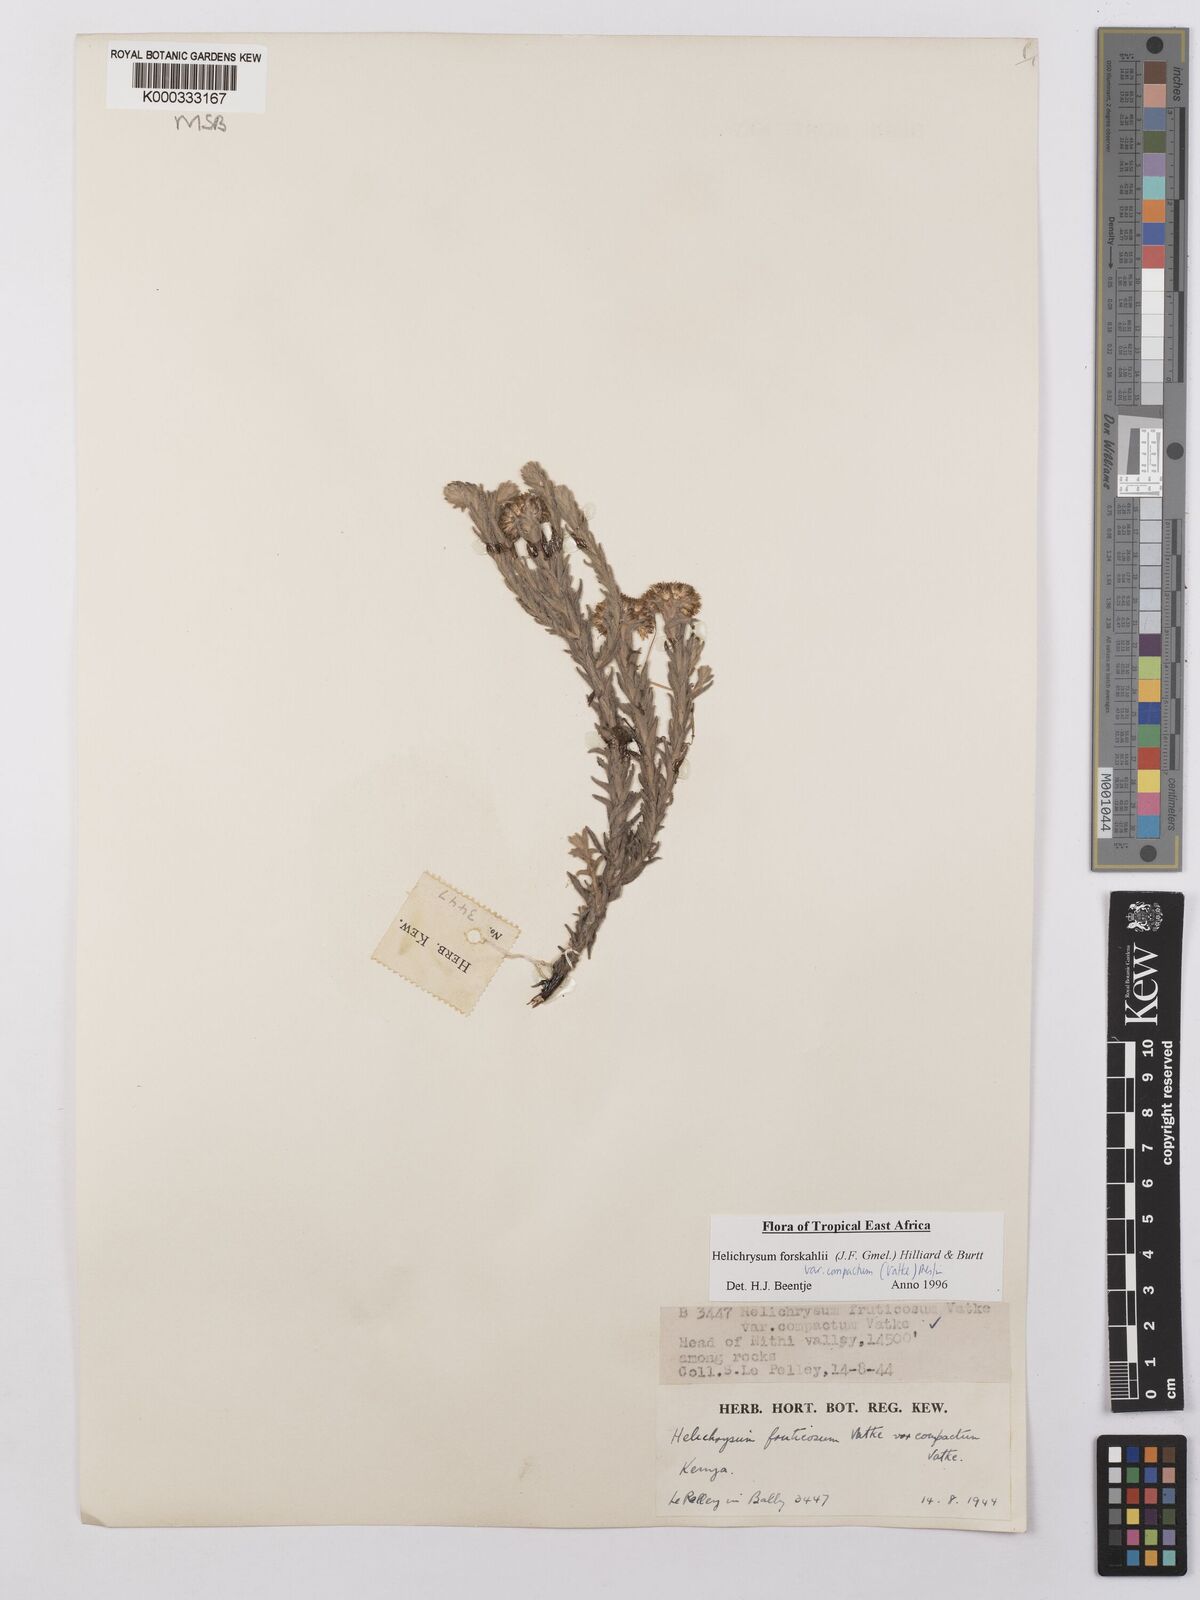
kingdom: Plantae
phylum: Tracheophyta
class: Magnoliopsida
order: Asterales
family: Asteraceae
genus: Helichrysum
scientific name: Helichrysum forskahlii
